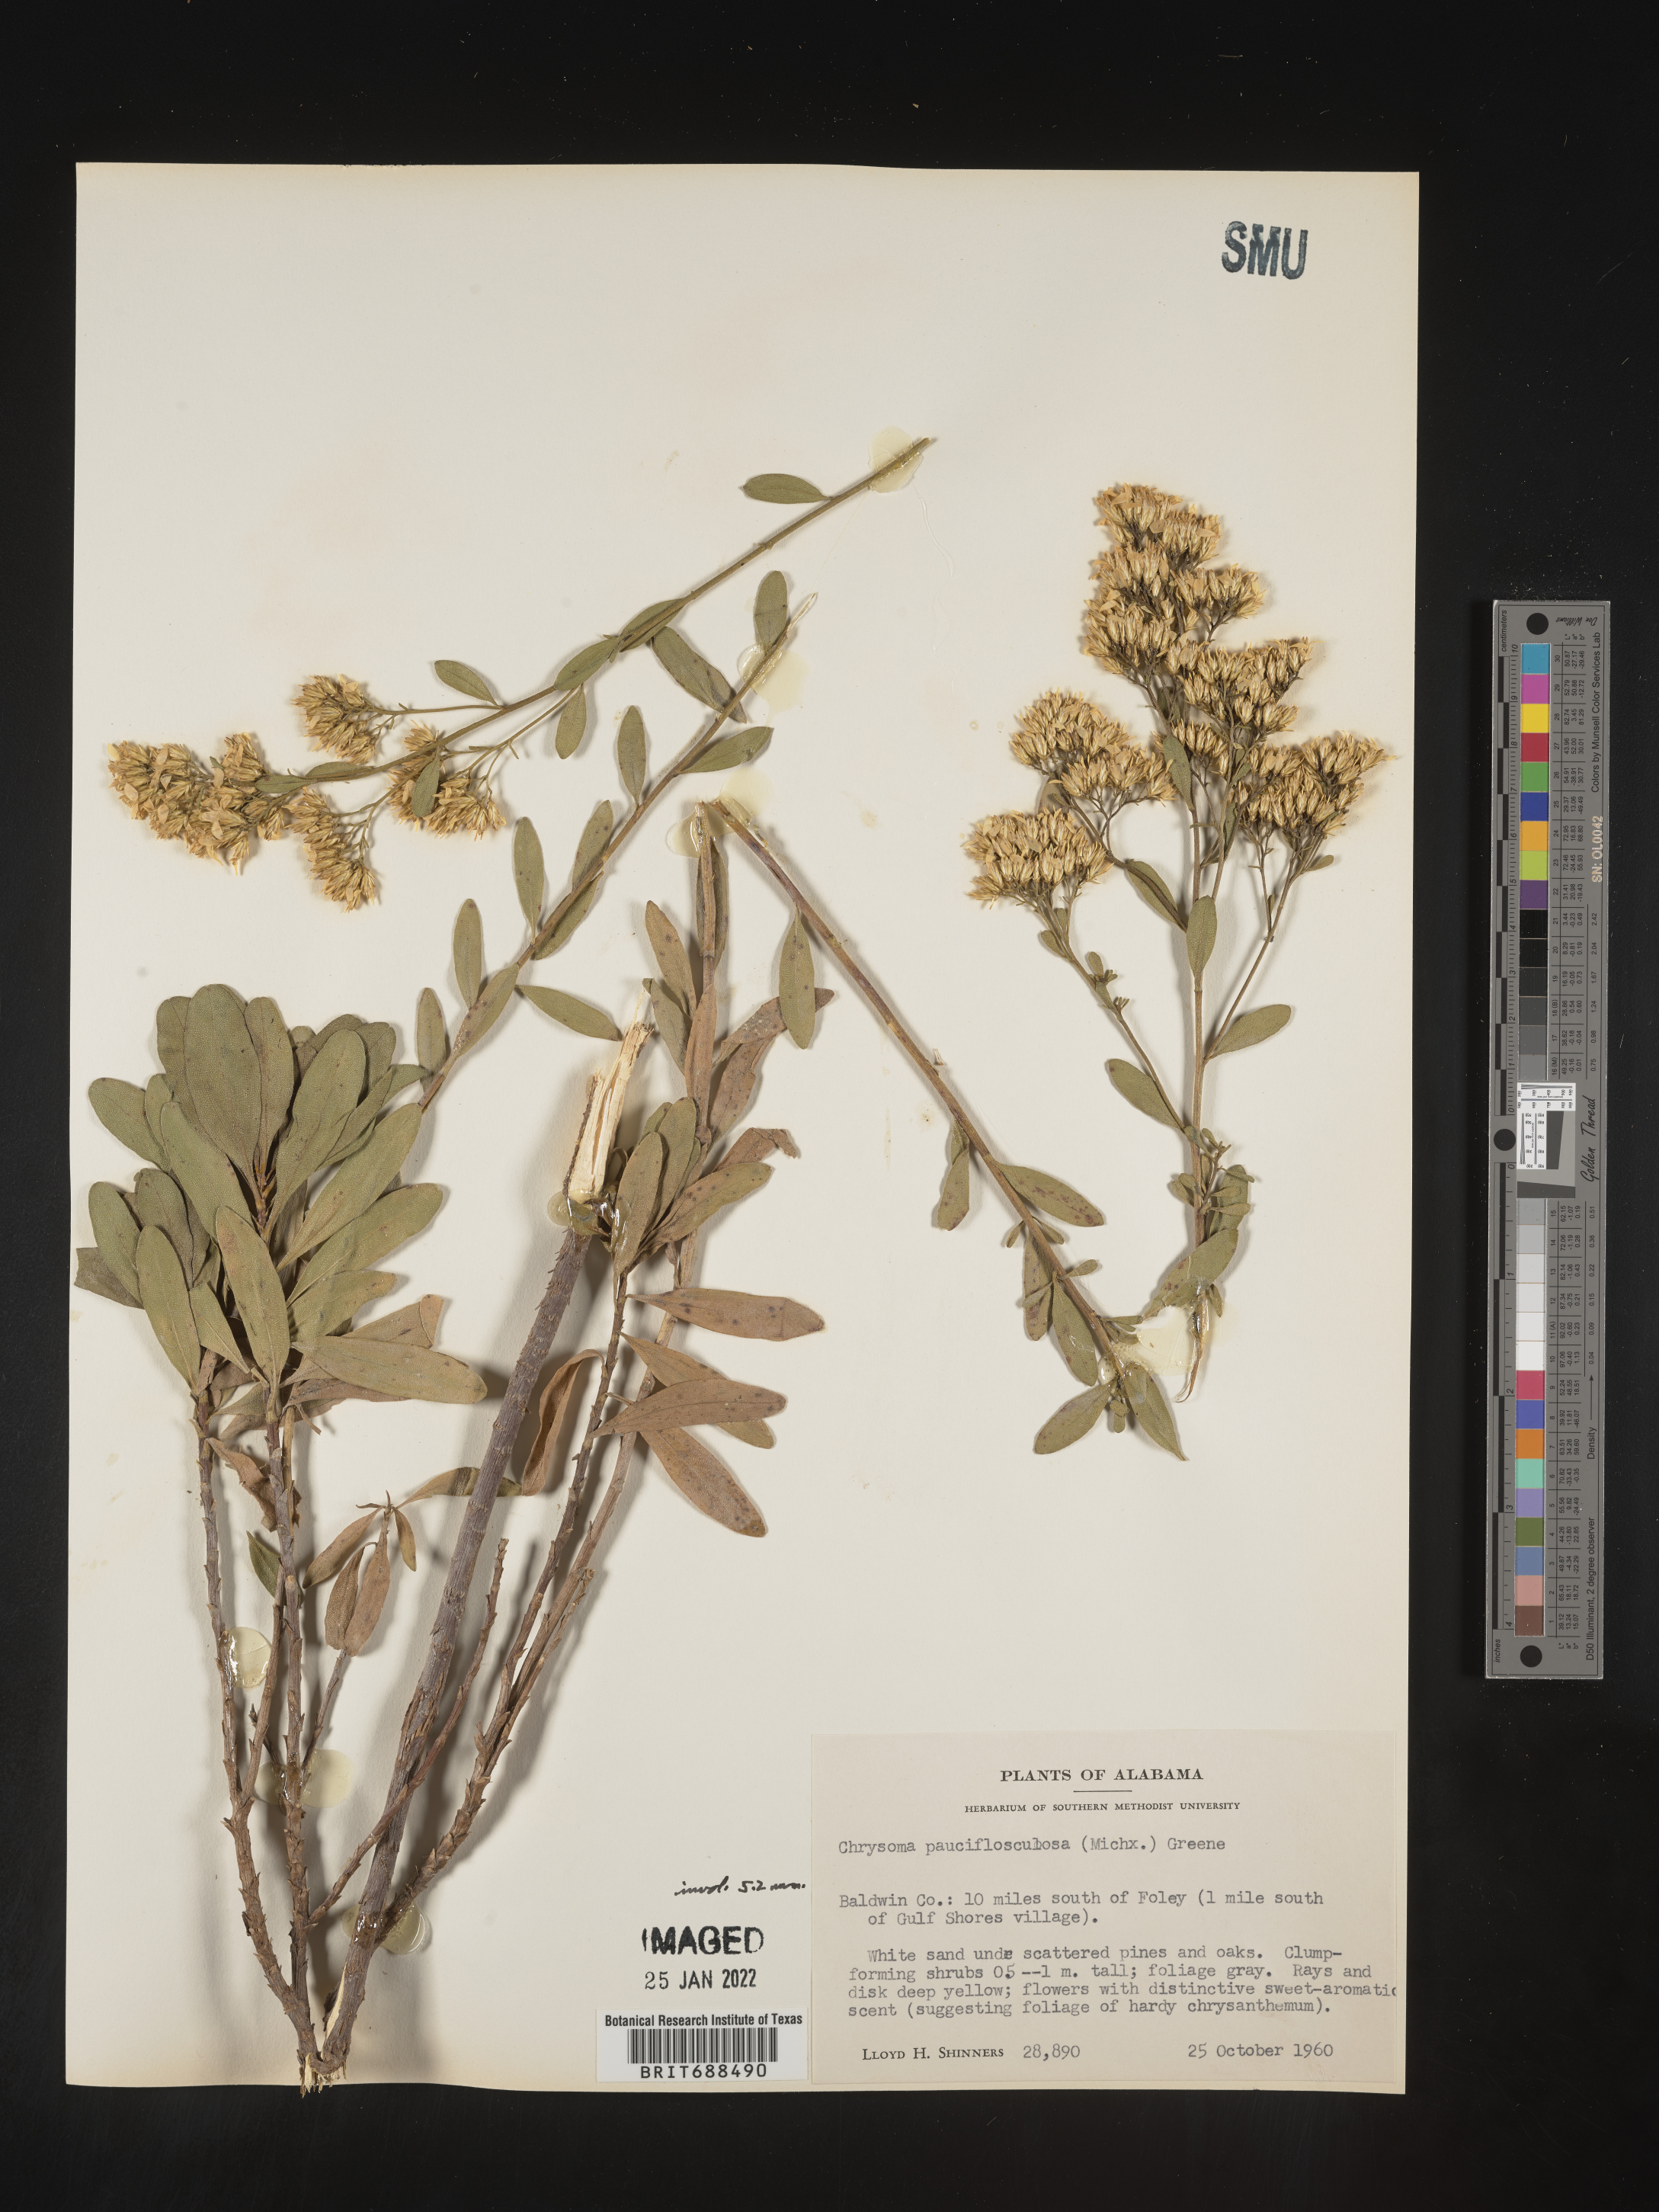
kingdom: Plantae
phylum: Tracheophyta
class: Magnoliopsida
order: Asterales
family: Asteraceae
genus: Chrysoma
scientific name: Chrysoma pauciflosculosa
